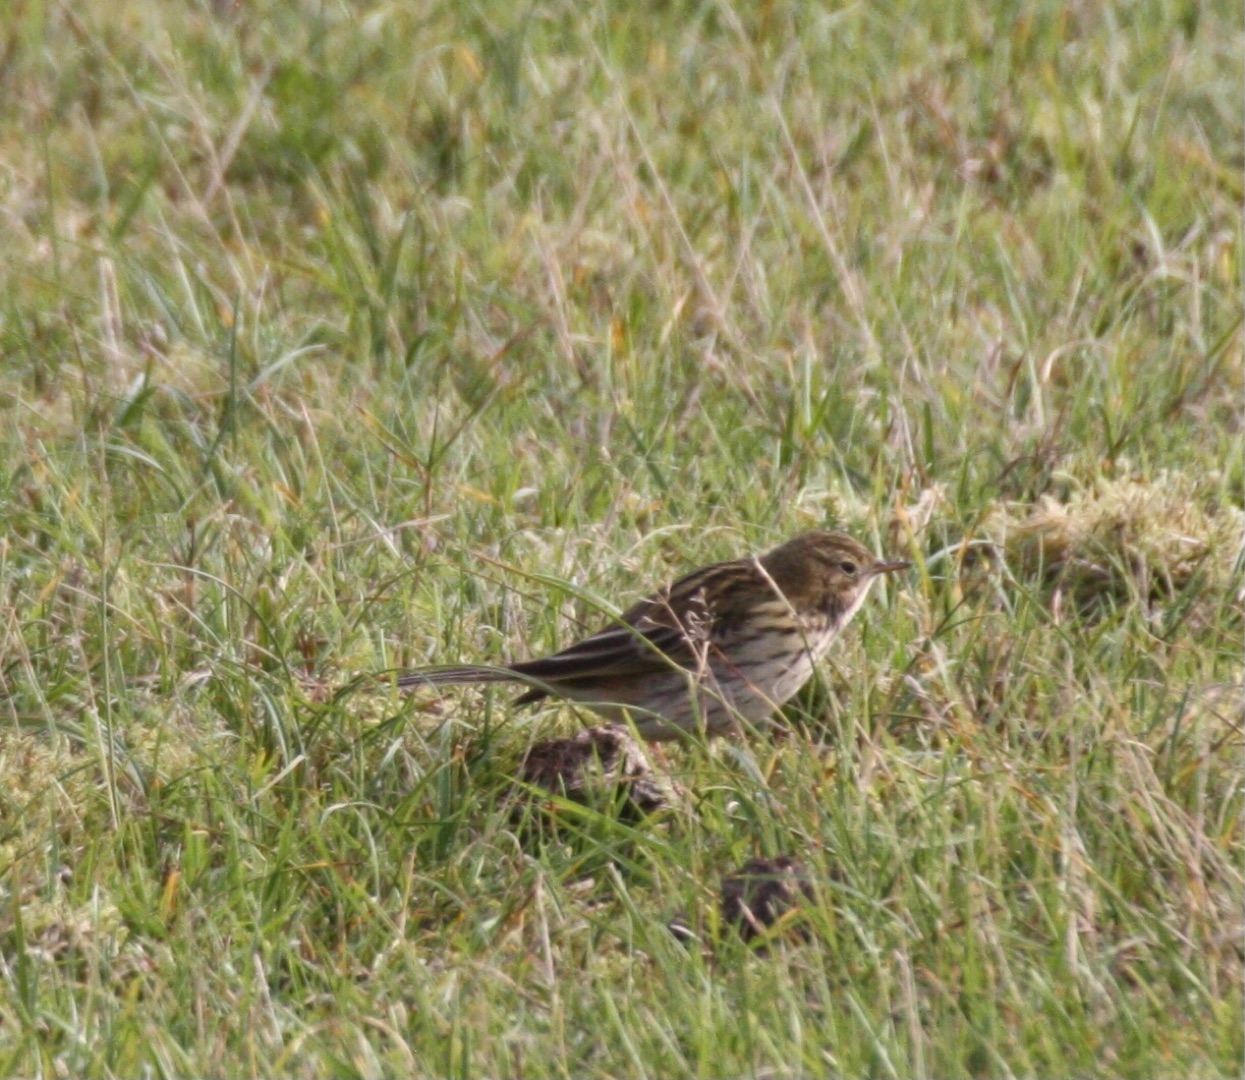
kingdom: Animalia
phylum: Chordata
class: Aves
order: Passeriformes
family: Motacillidae
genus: Anthus
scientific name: Anthus pratensis
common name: Engpiber
